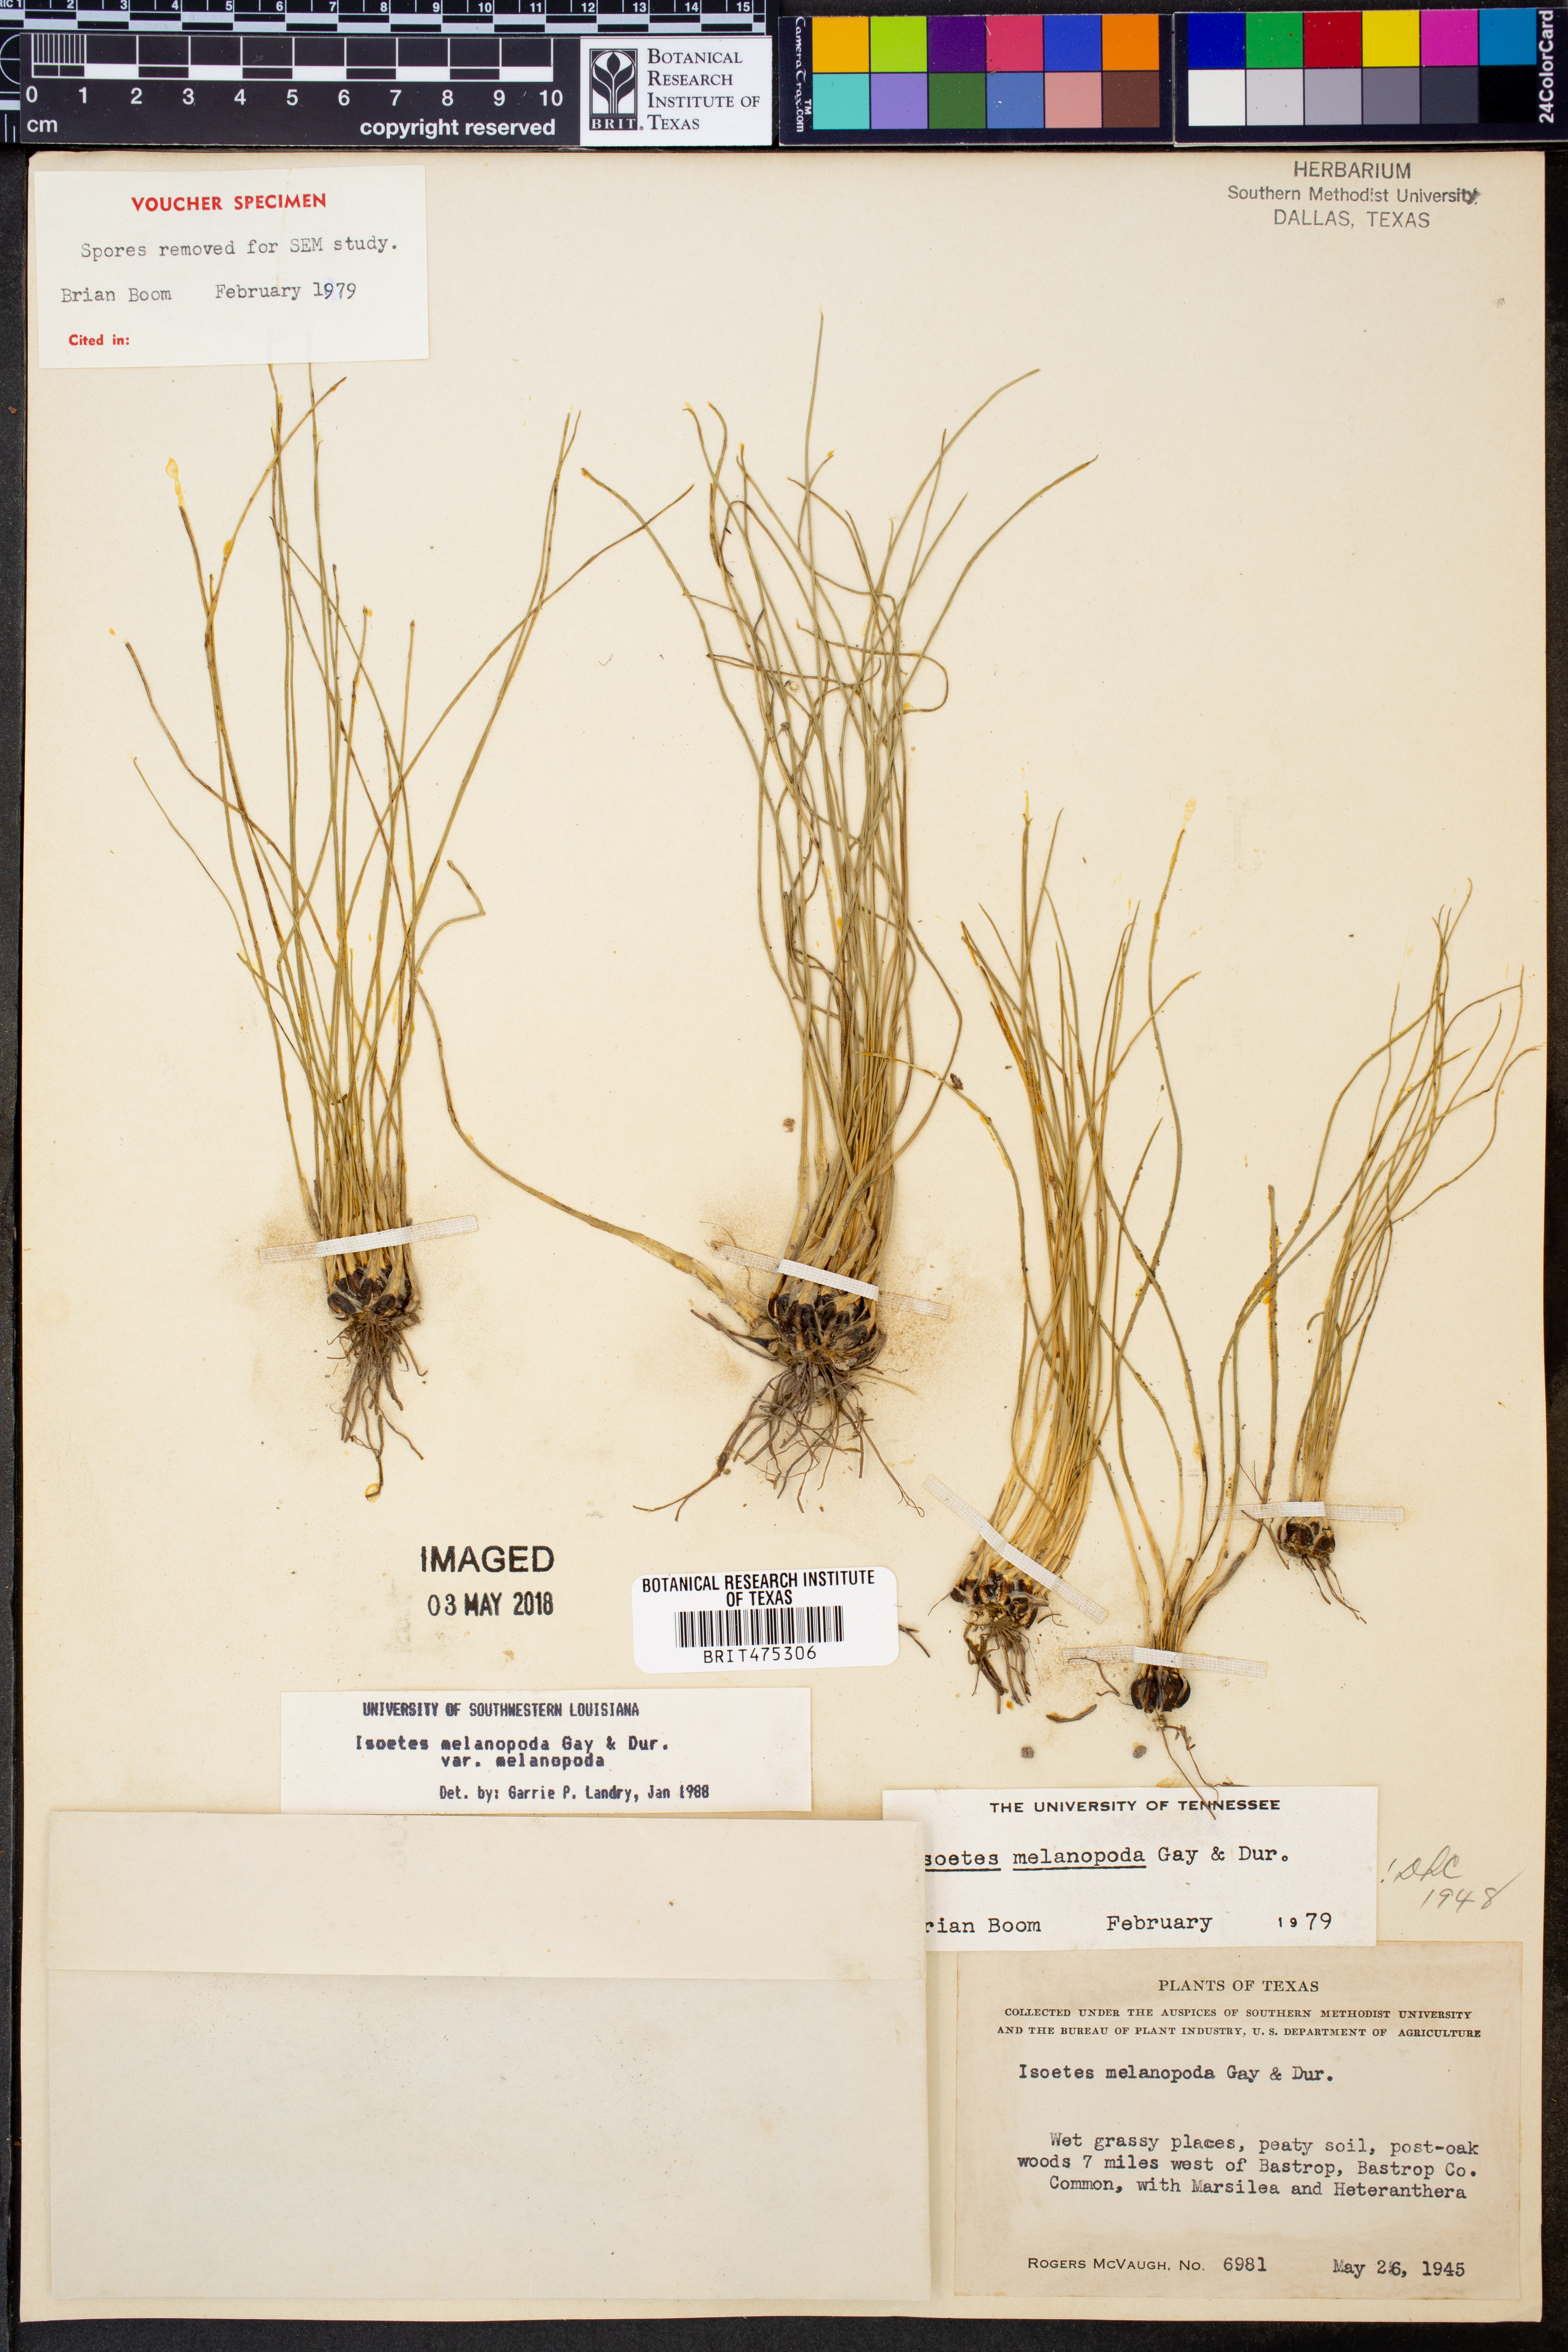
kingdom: Plantae
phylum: Tracheophyta
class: Lycopodiopsida
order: Isoetales
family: Isoetaceae
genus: Isoetes
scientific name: Isoetes melanopoda
